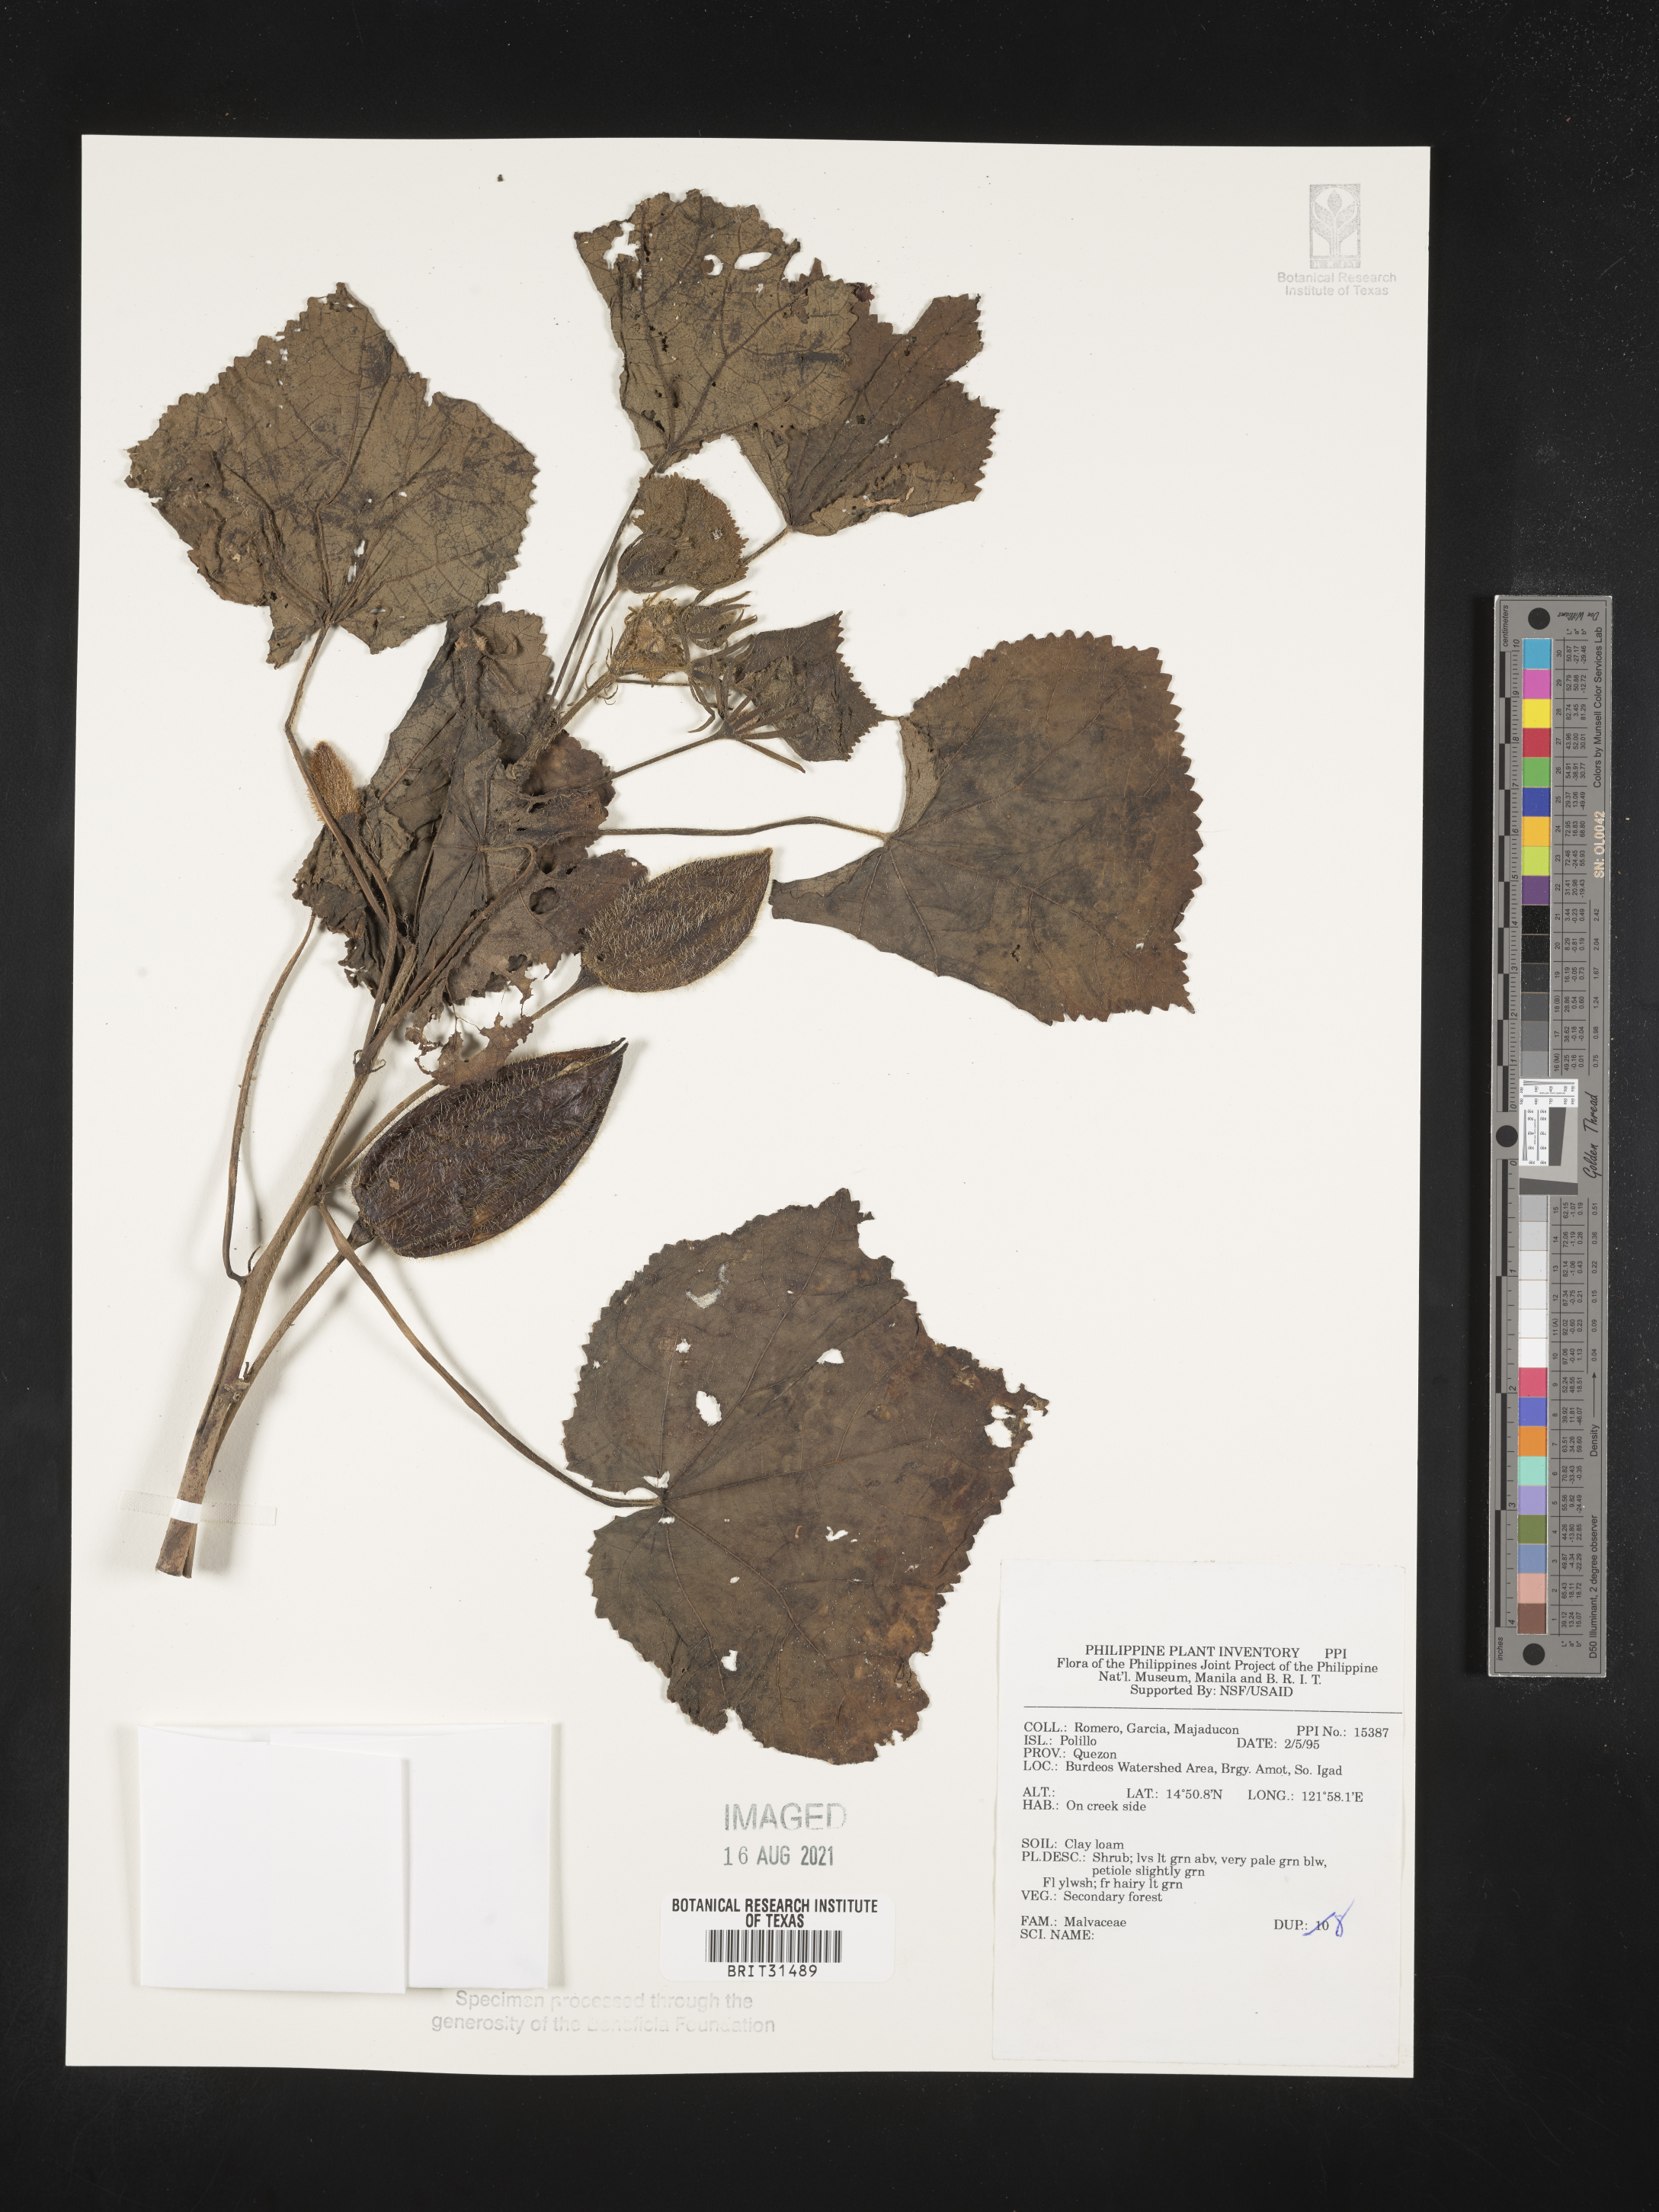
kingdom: Plantae
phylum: Tracheophyta
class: Magnoliopsida
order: Malvales
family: Malvaceae
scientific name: Malvaceae
